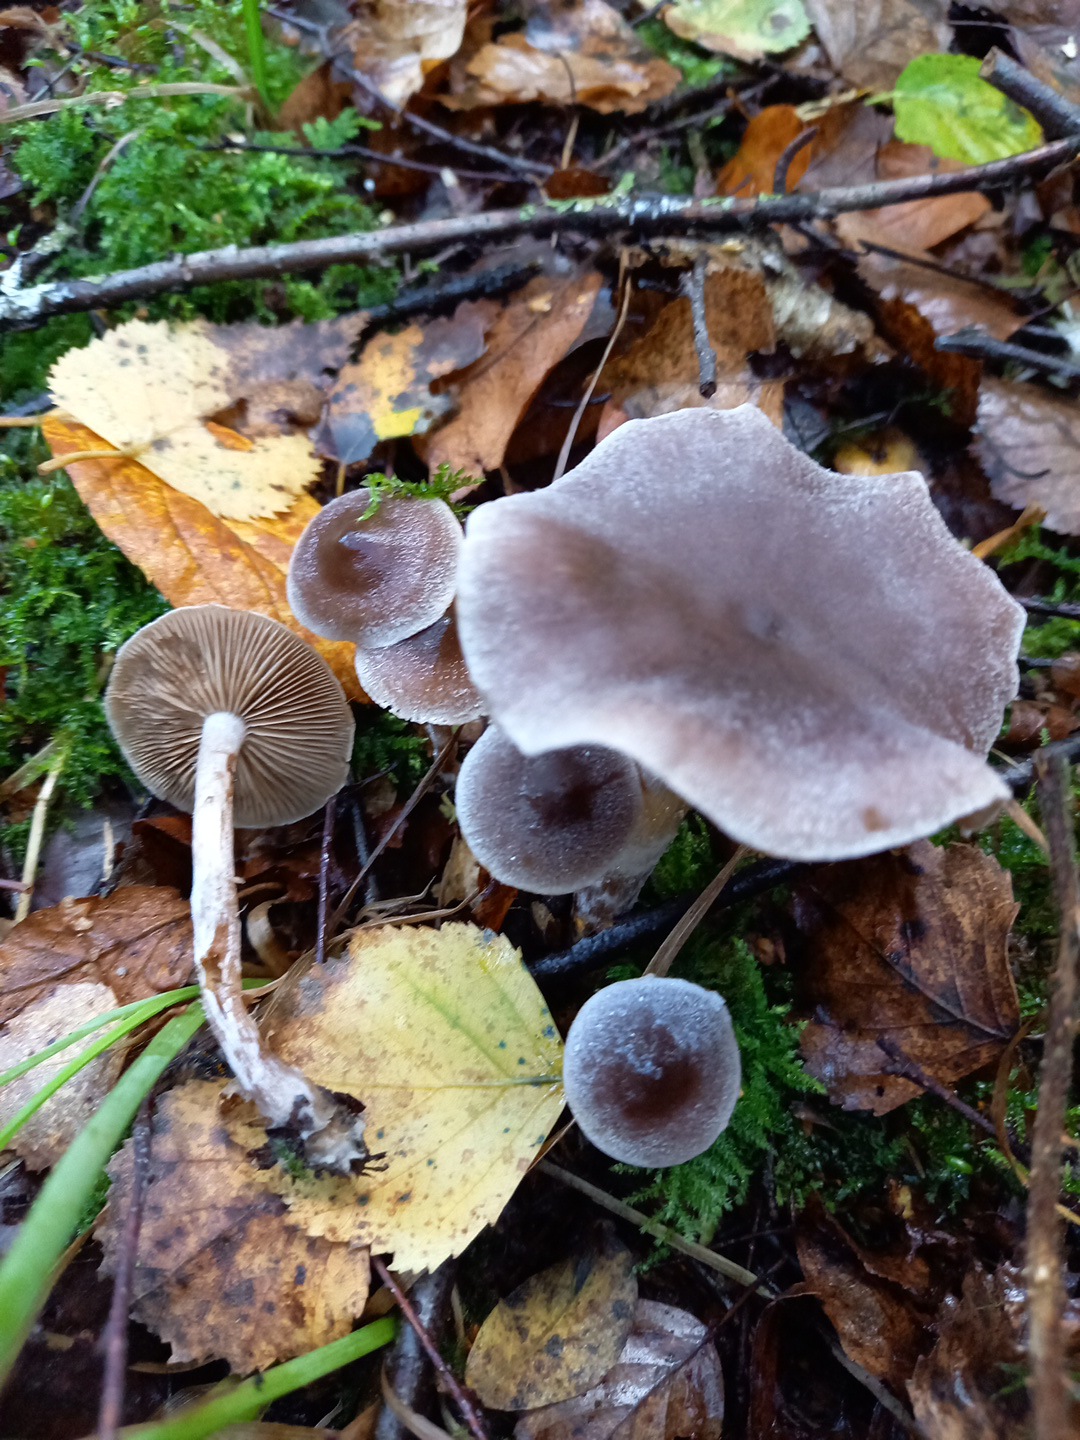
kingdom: Fungi
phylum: Basidiomycota
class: Agaricomycetes
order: Agaricales
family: Cortinariaceae
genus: Cortinarius
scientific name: Cortinarius hemitrichus
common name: hvidfnugget slørhat
